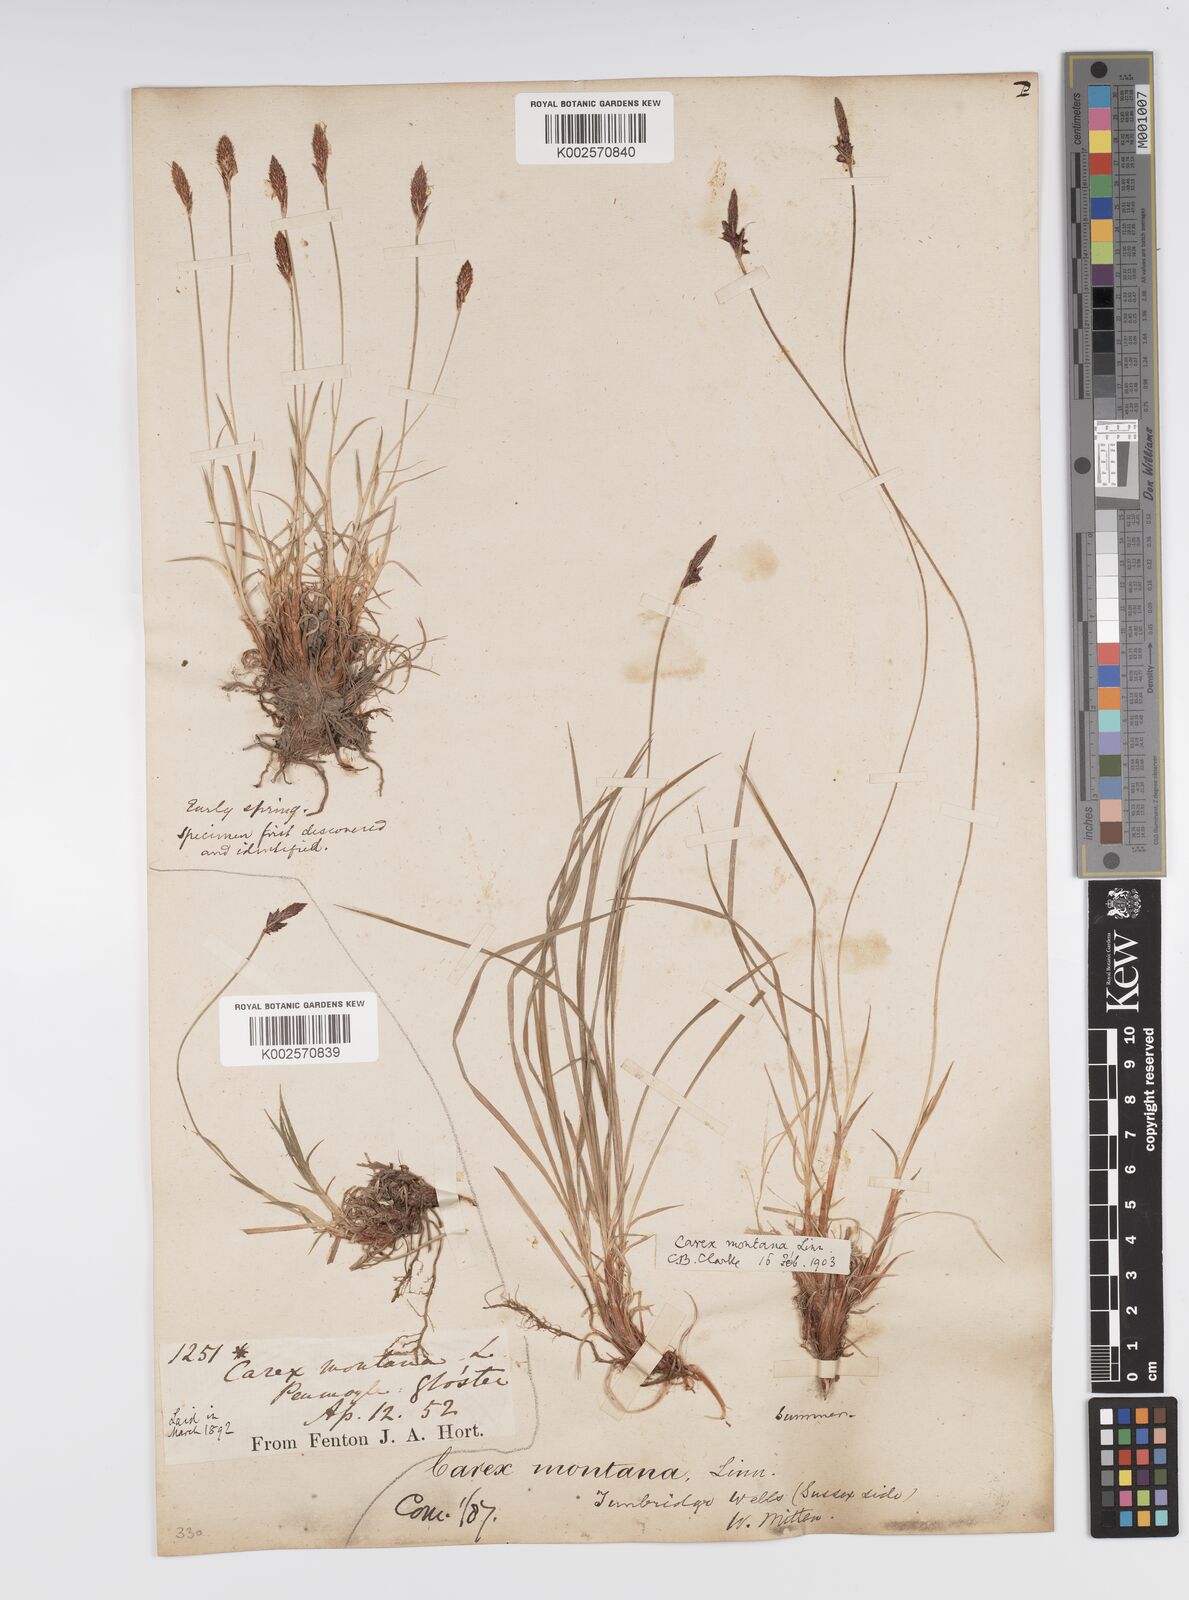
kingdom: Plantae
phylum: Tracheophyta
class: Liliopsida
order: Poales
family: Cyperaceae
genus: Carex
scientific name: Carex montana
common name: Soft-leaved sedge
